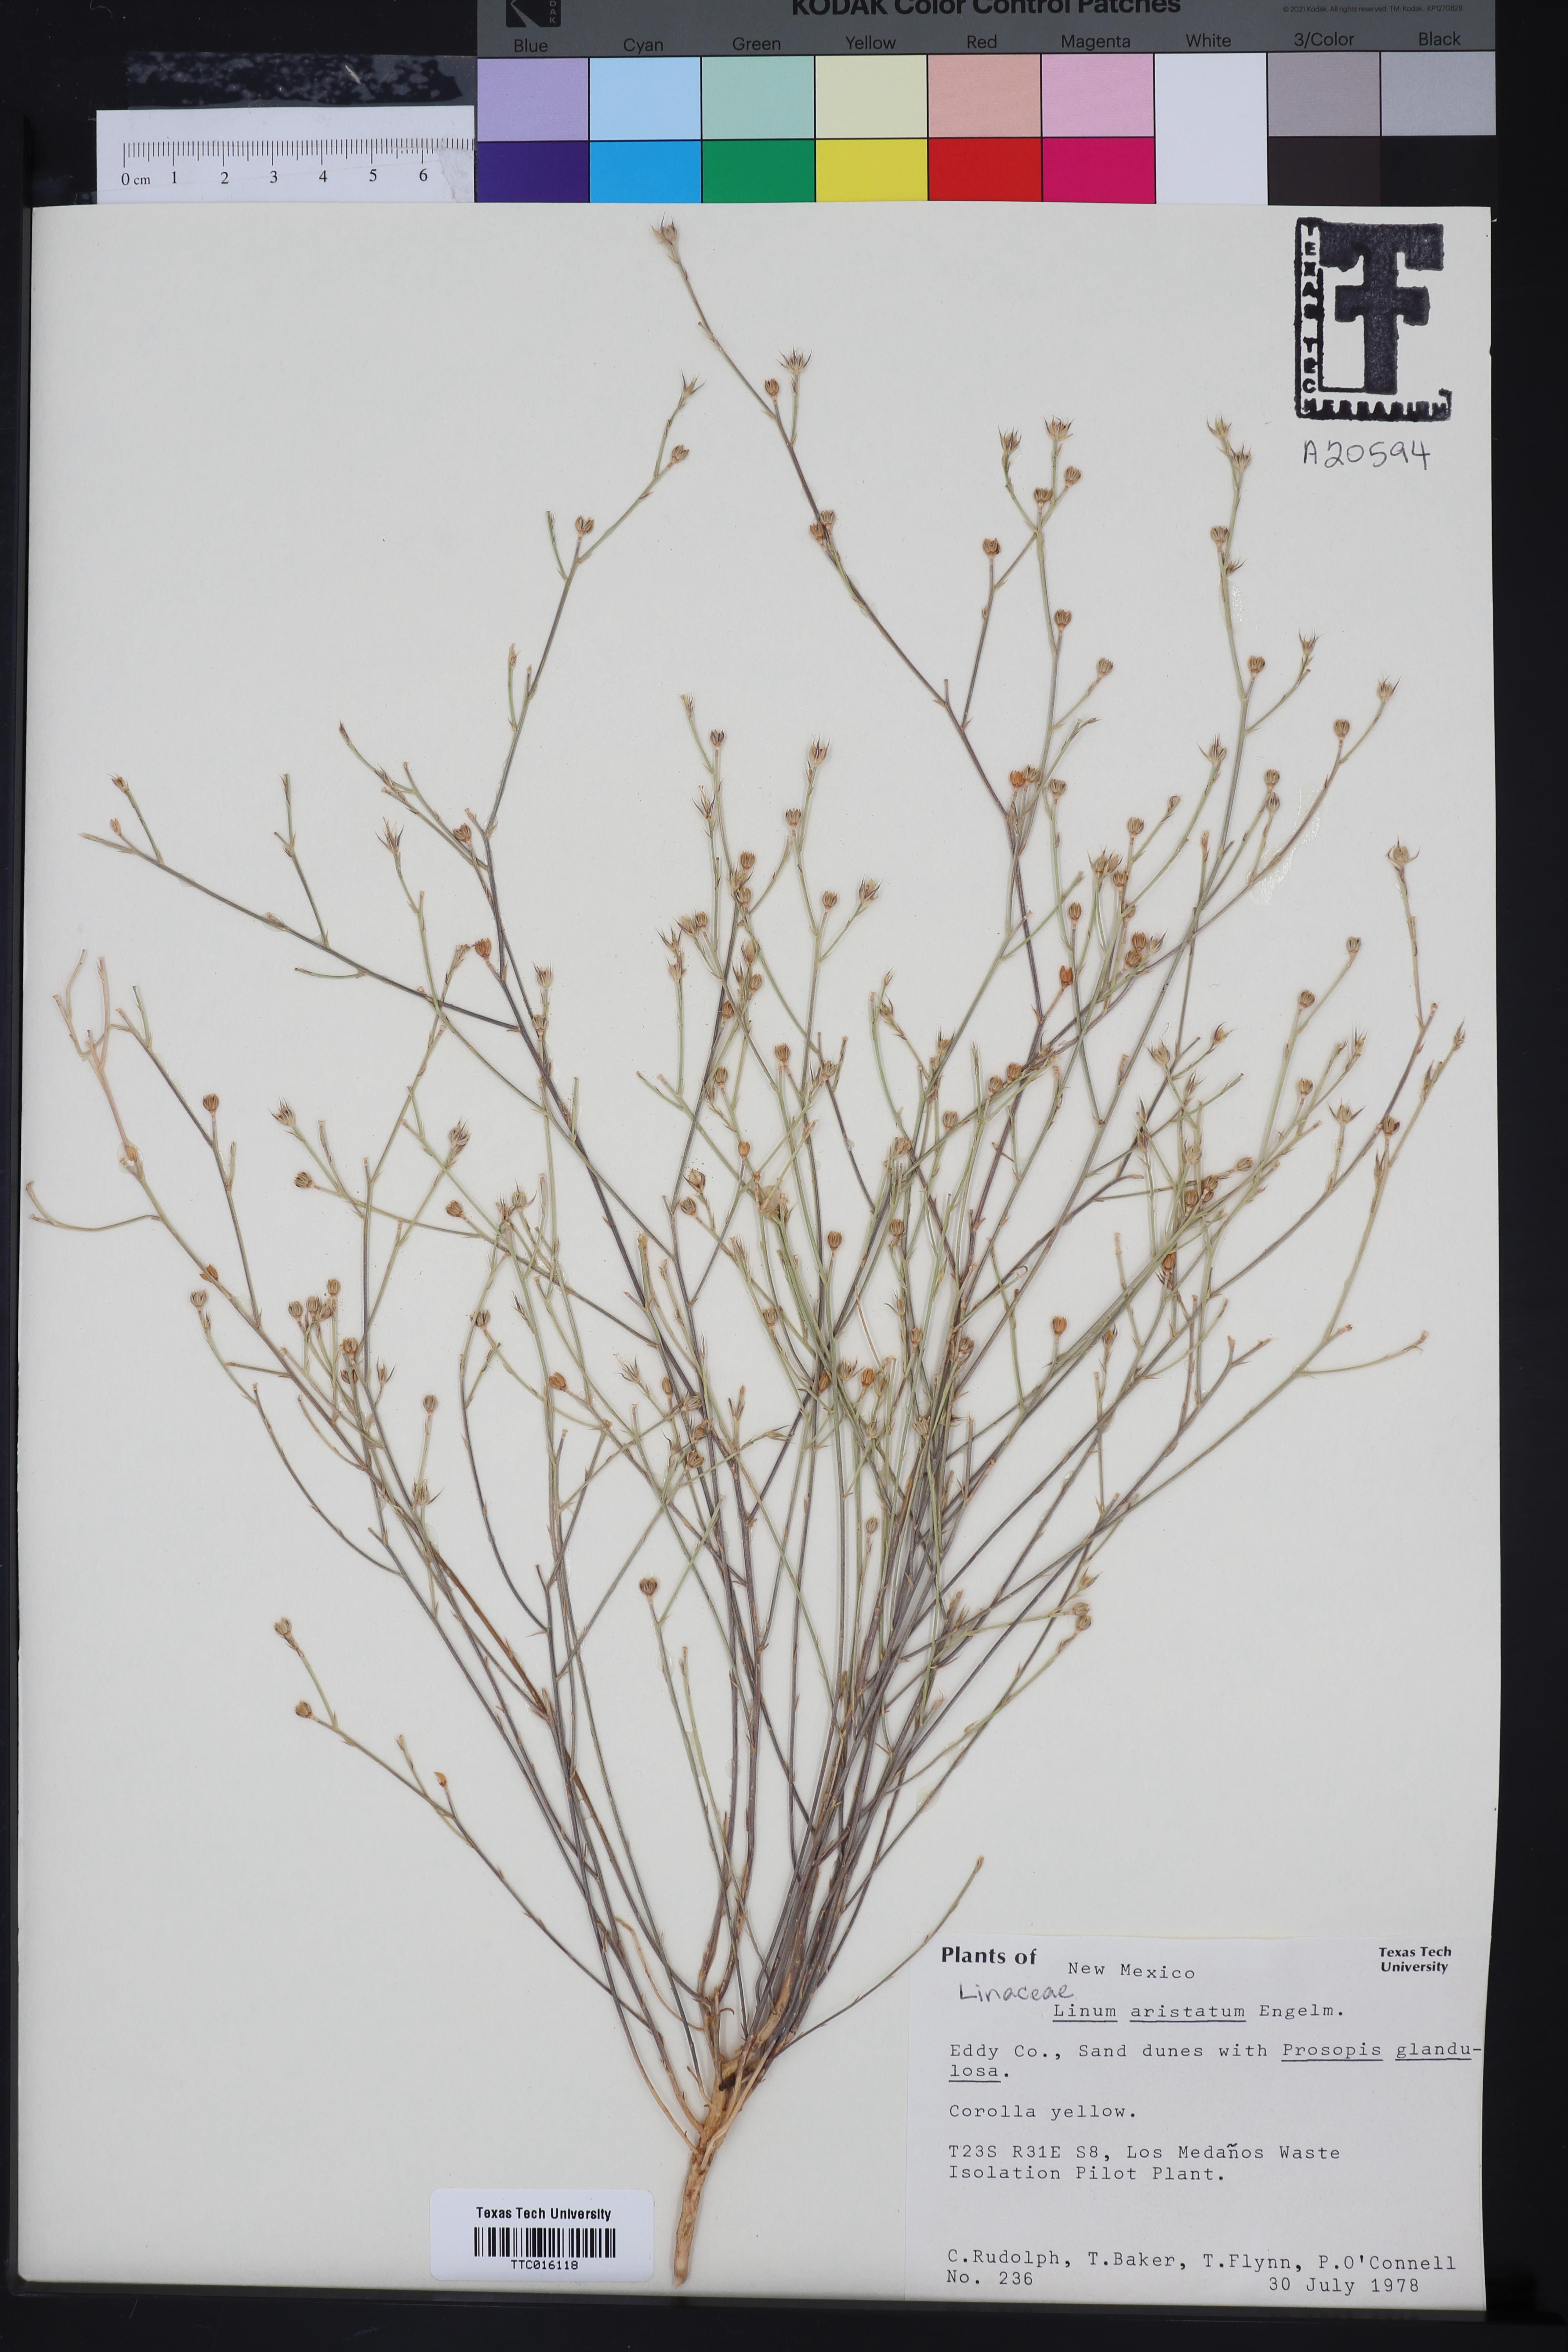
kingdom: Plantae
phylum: Tracheophyta
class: Magnoliopsida
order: Malpighiales
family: Linaceae
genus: Linum
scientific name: Linum aristatum
